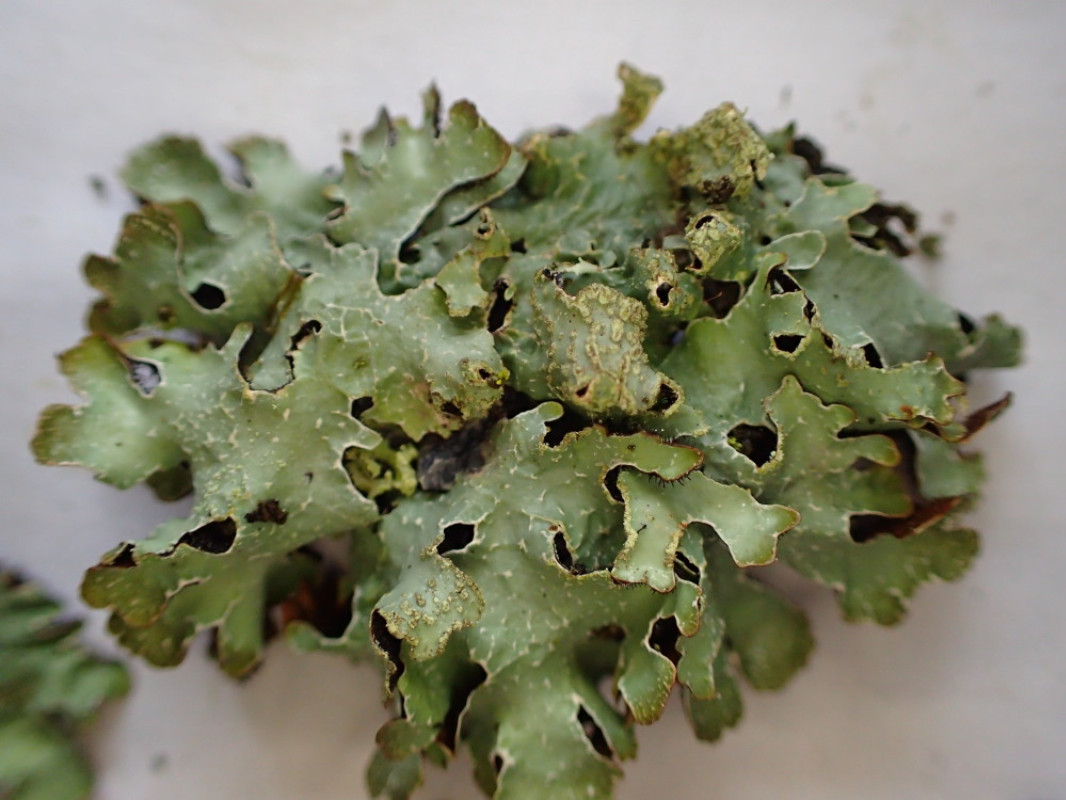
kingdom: Fungi
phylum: Ascomycota
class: Lecanoromycetes
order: Lecanorales
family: Parmeliaceae
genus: Parmelia
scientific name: Parmelia sulcata
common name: rynket skållav
